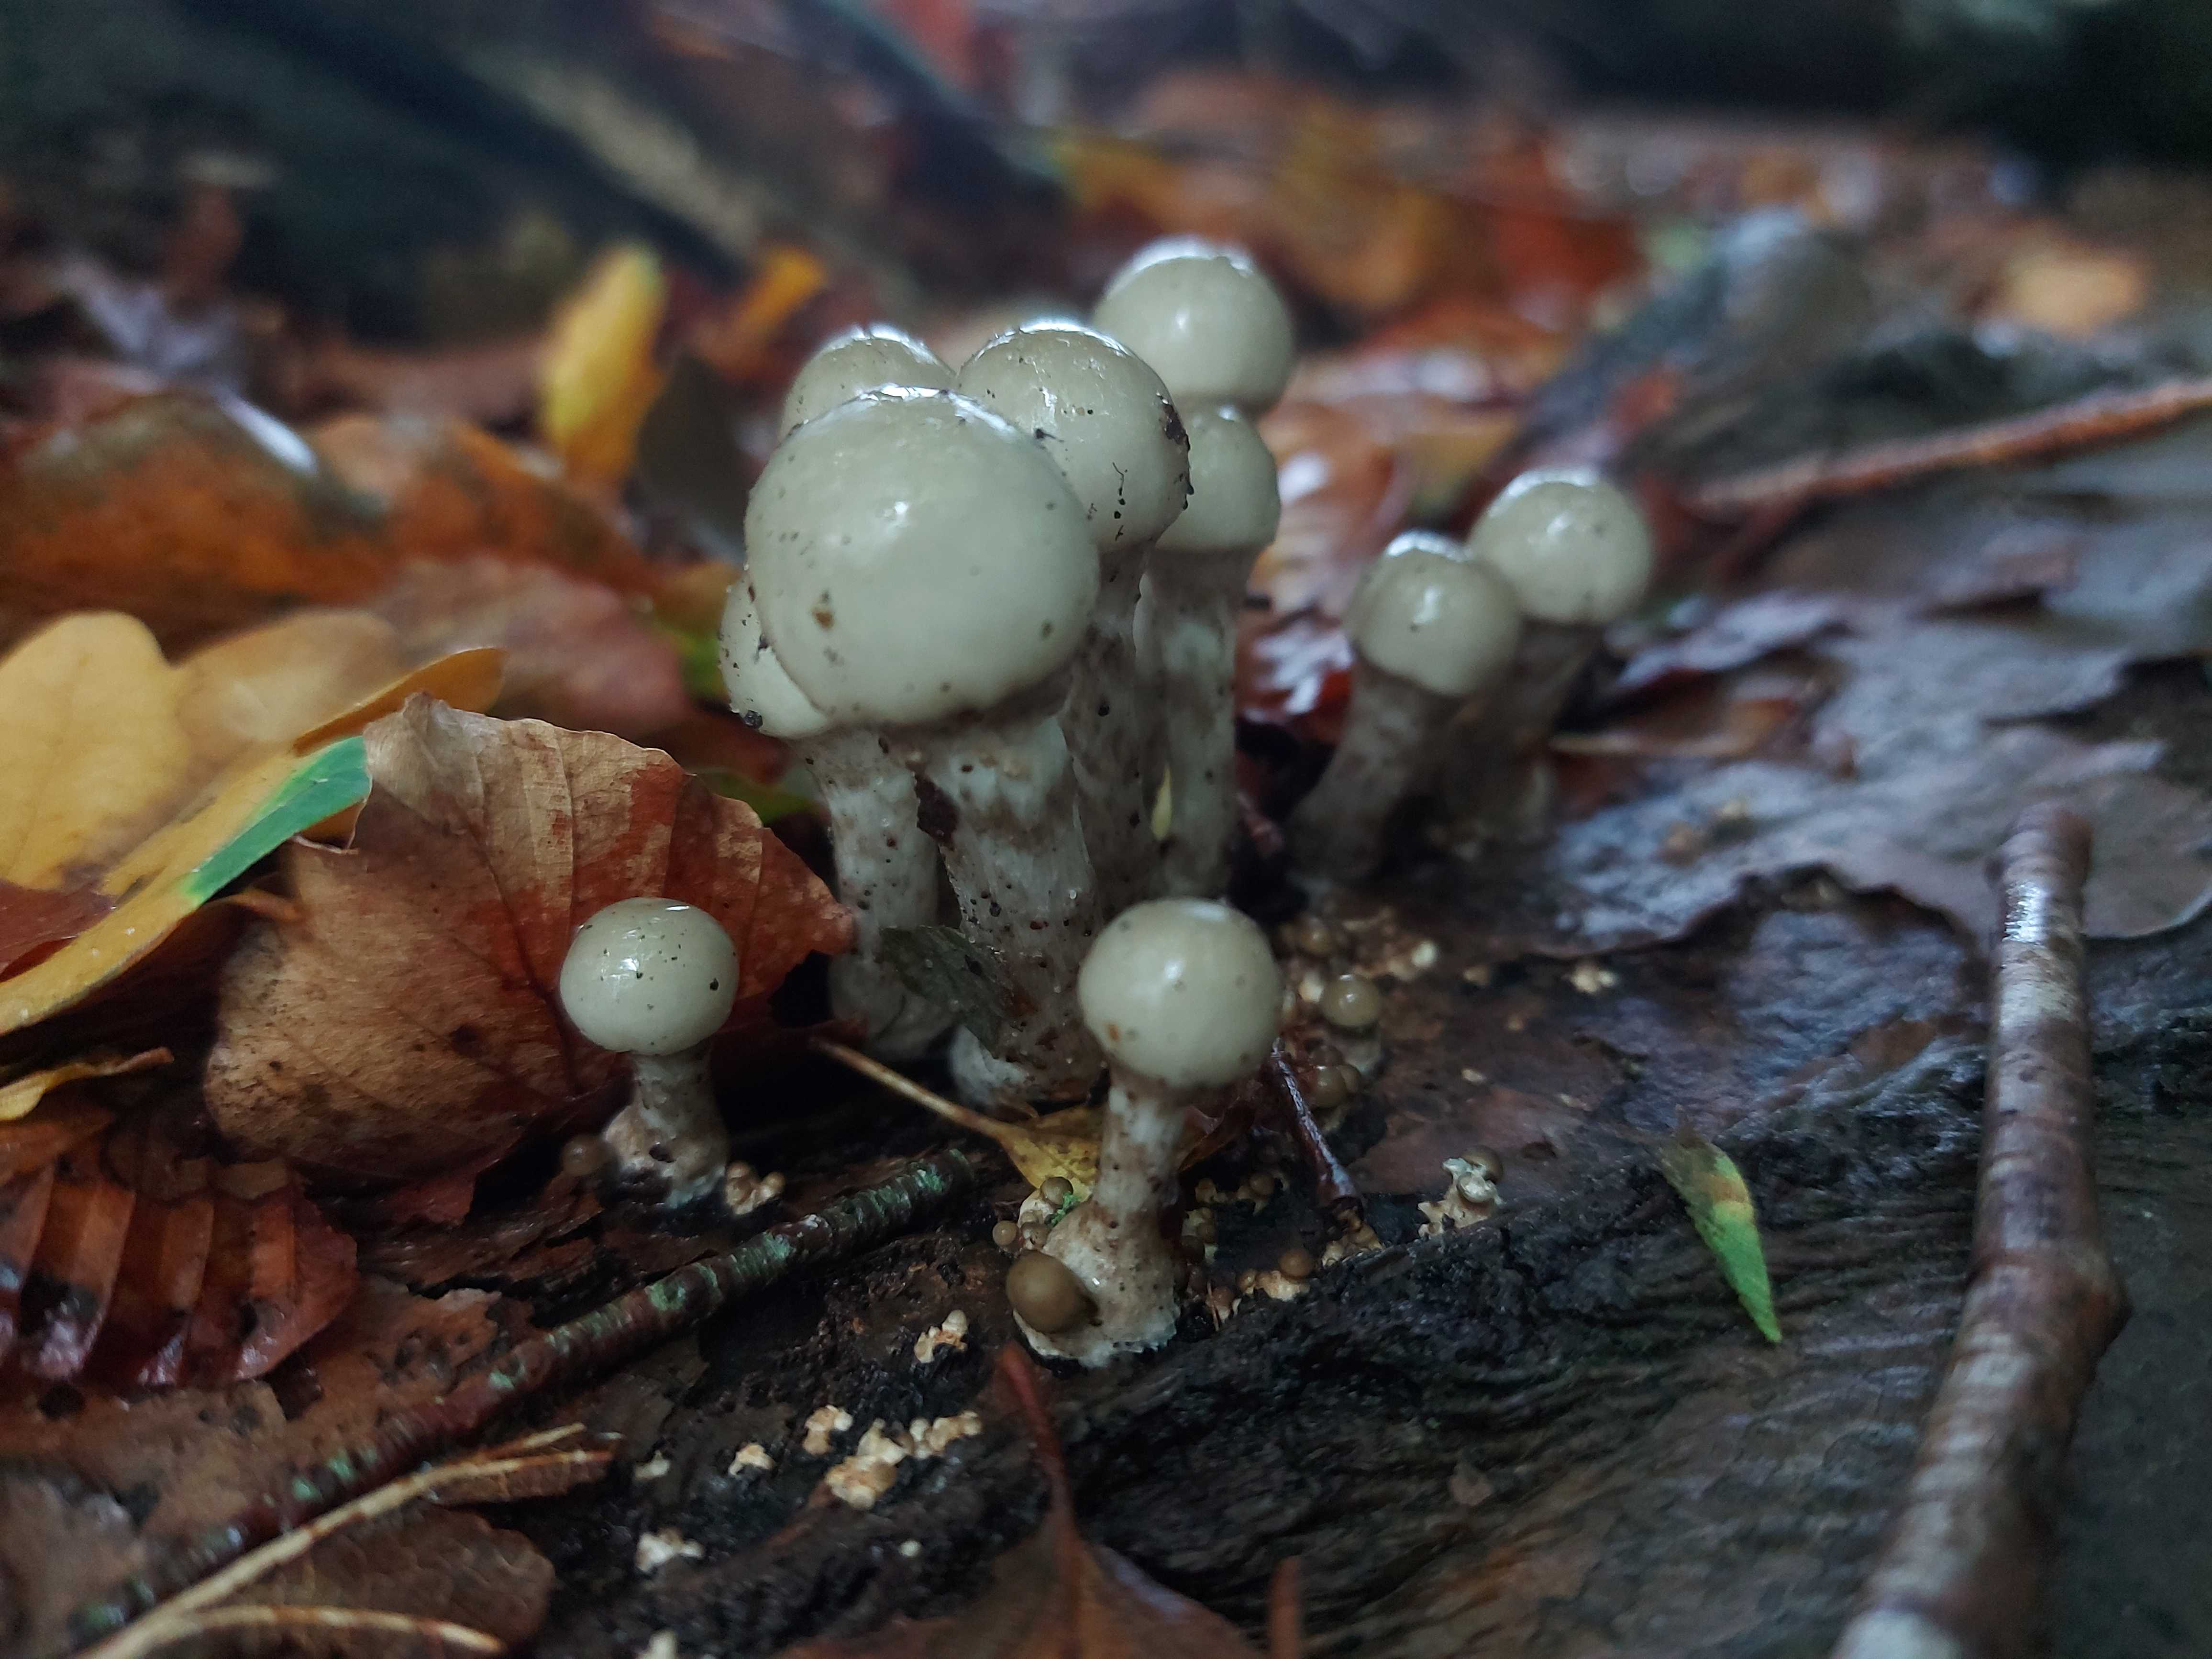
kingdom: Fungi
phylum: Basidiomycota
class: Agaricomycetes
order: Agaricales
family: Physalacriaceae
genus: Mucidula
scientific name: Mucidula mucida
